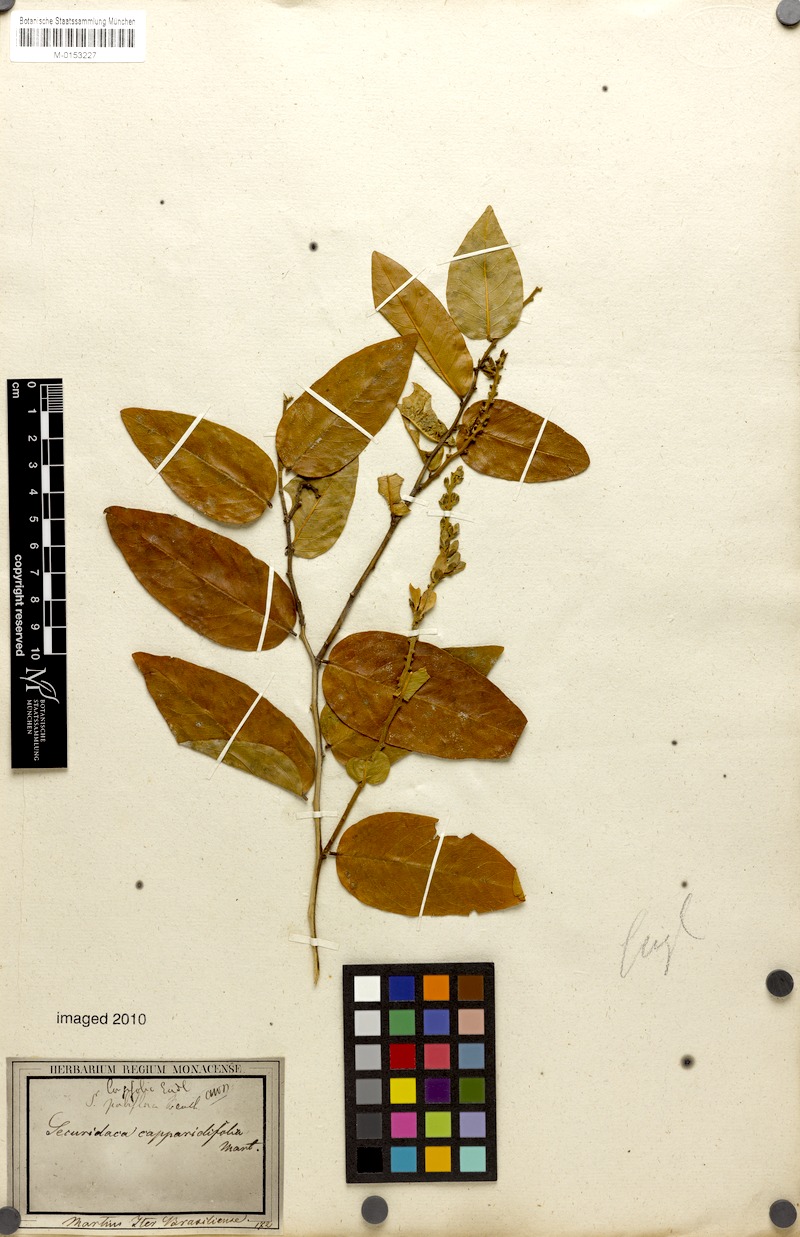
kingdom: Plantae
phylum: Tracheophyta
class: Magnoliopsida
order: Fabales
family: Polygalaceae
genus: Securidaca
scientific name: Securidaca longifolia
